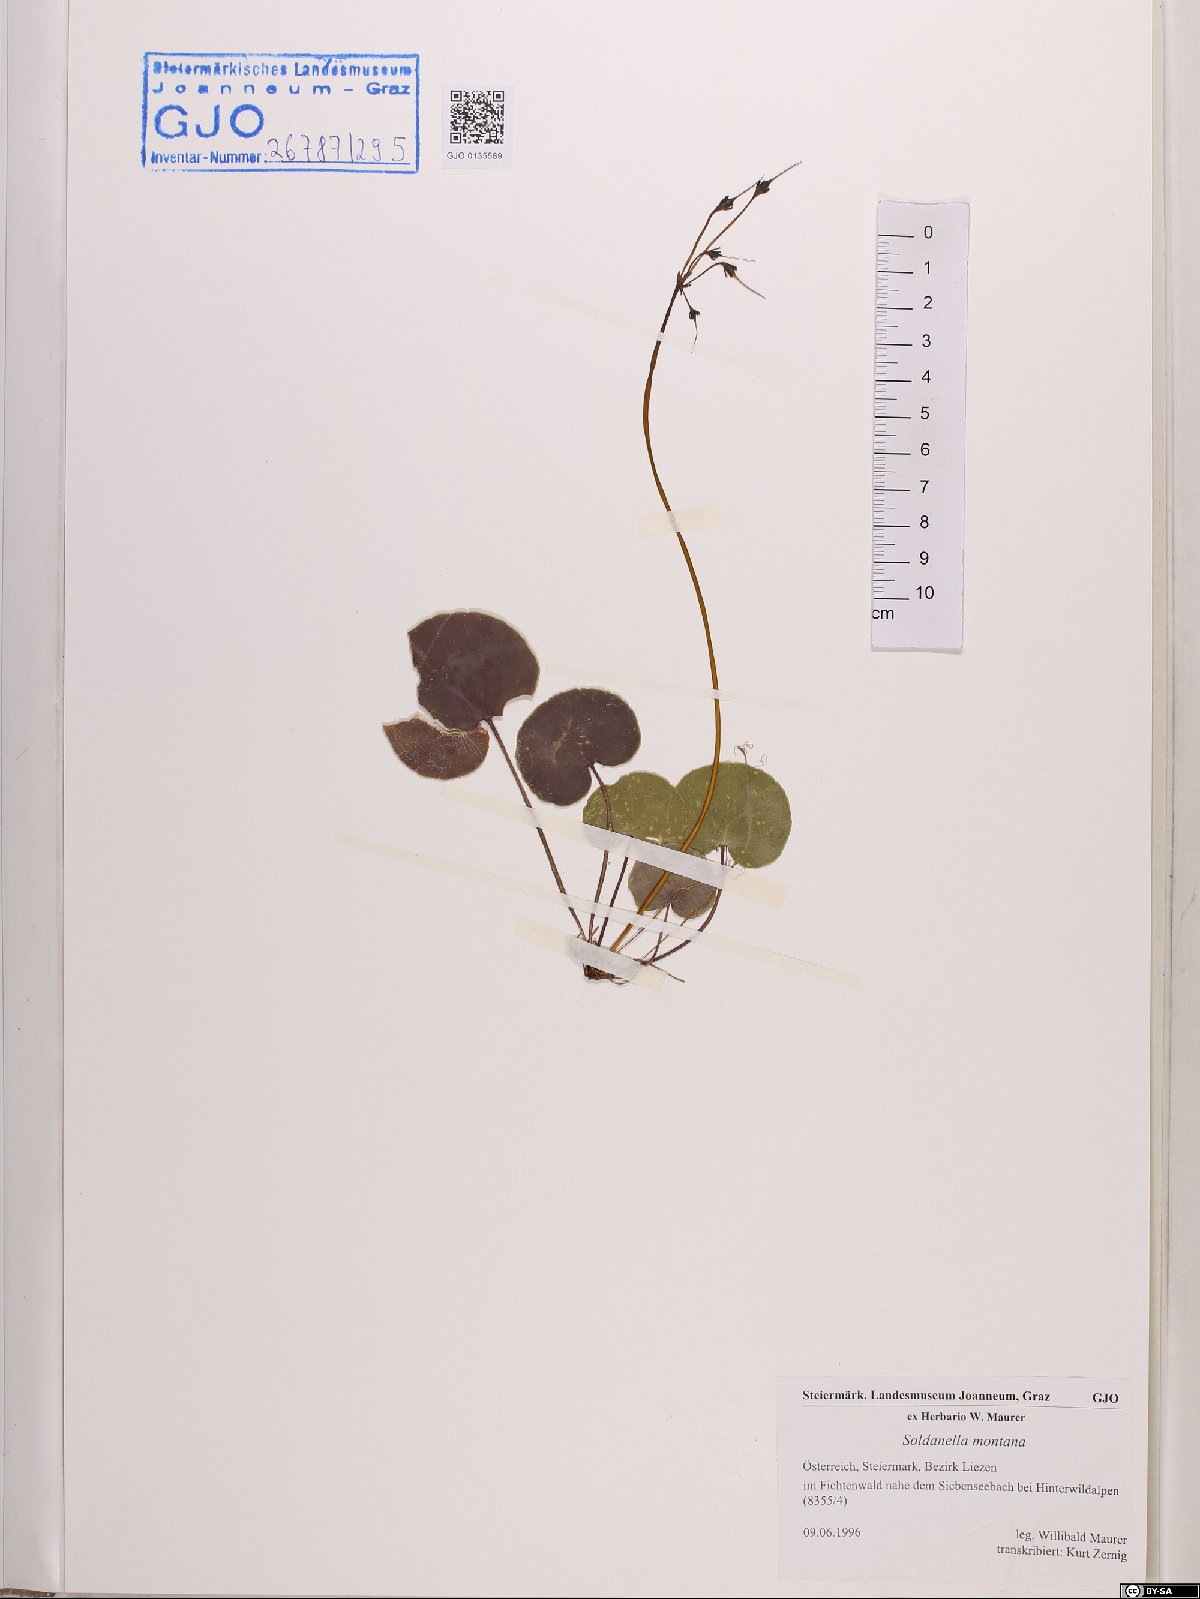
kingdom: Plantae
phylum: Tracheophyta
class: Magnoliopsida
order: Ericales
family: Primulaceae
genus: Soldanella
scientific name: Soldanella montana
